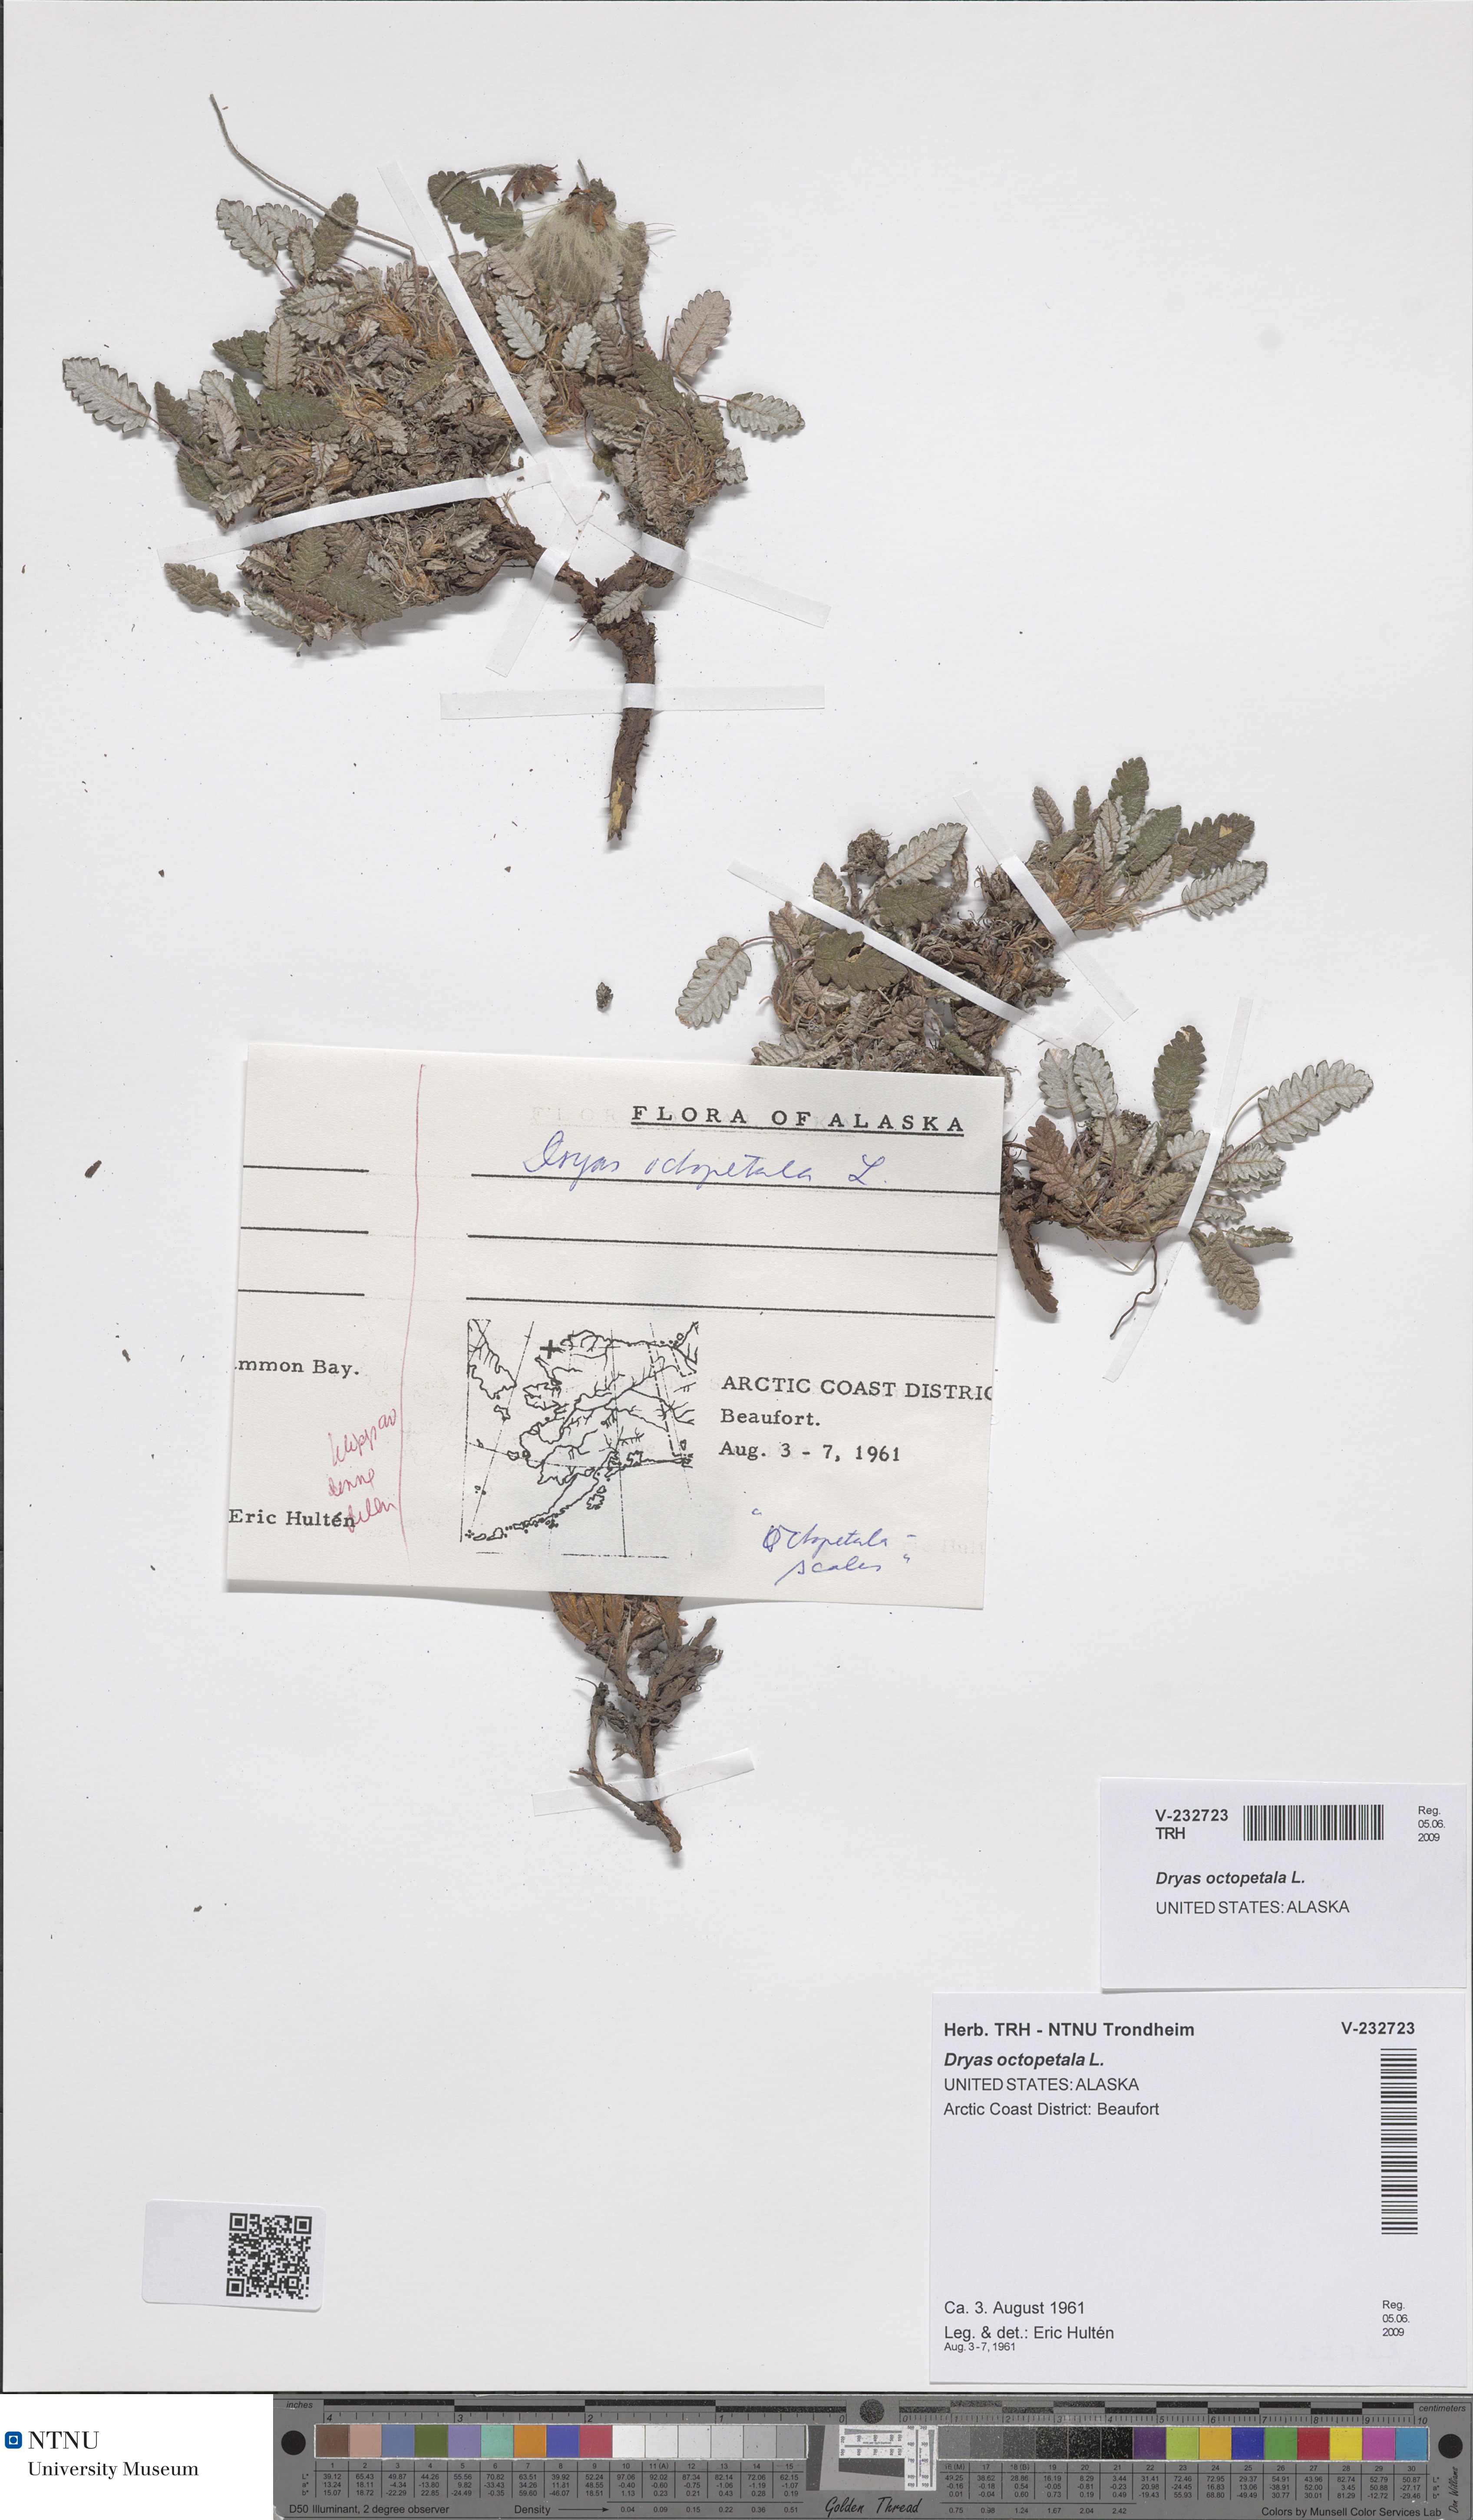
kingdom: Plantae
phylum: Tracheophyta
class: Magnoliopsida
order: Rosales
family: Rosaceae
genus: Dryas
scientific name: Dryas octopetala
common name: Eight-petal mountain-avens
